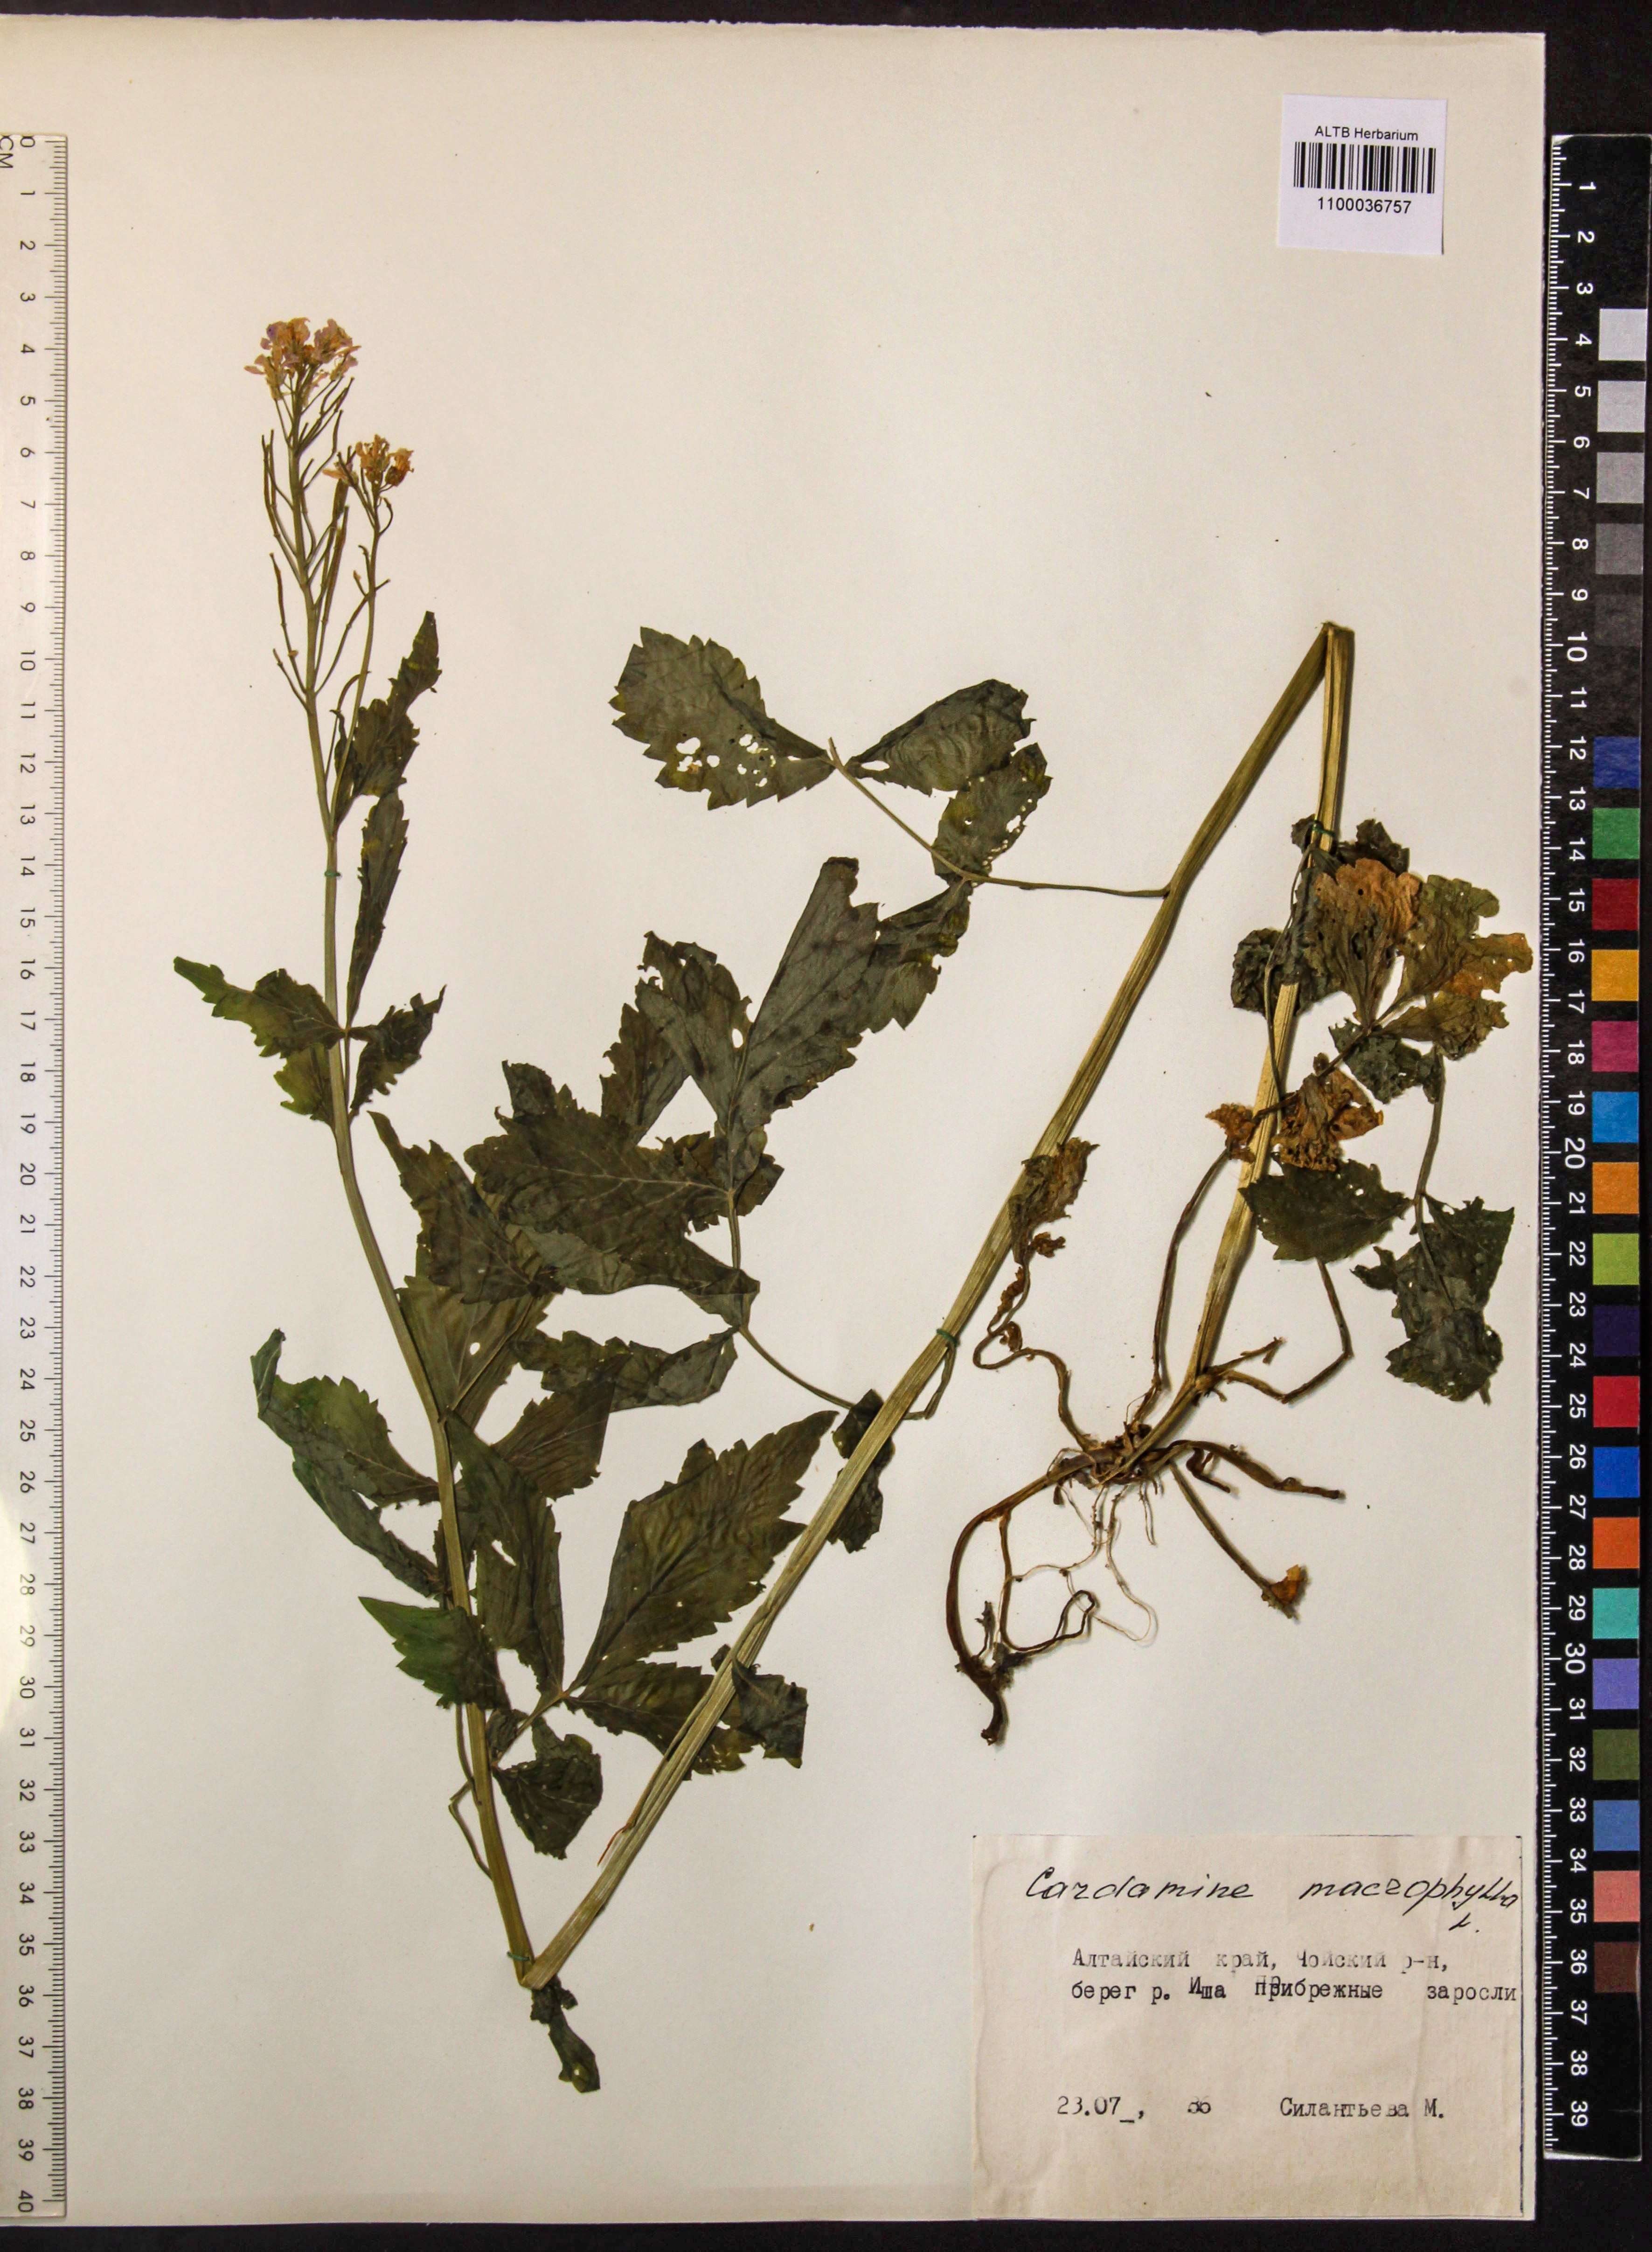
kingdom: Plantae
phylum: Tracheophyta
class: Magnoliopsida
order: Brassicales
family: Brassicaceae
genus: Cardamine
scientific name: Cardamine macrophylla
